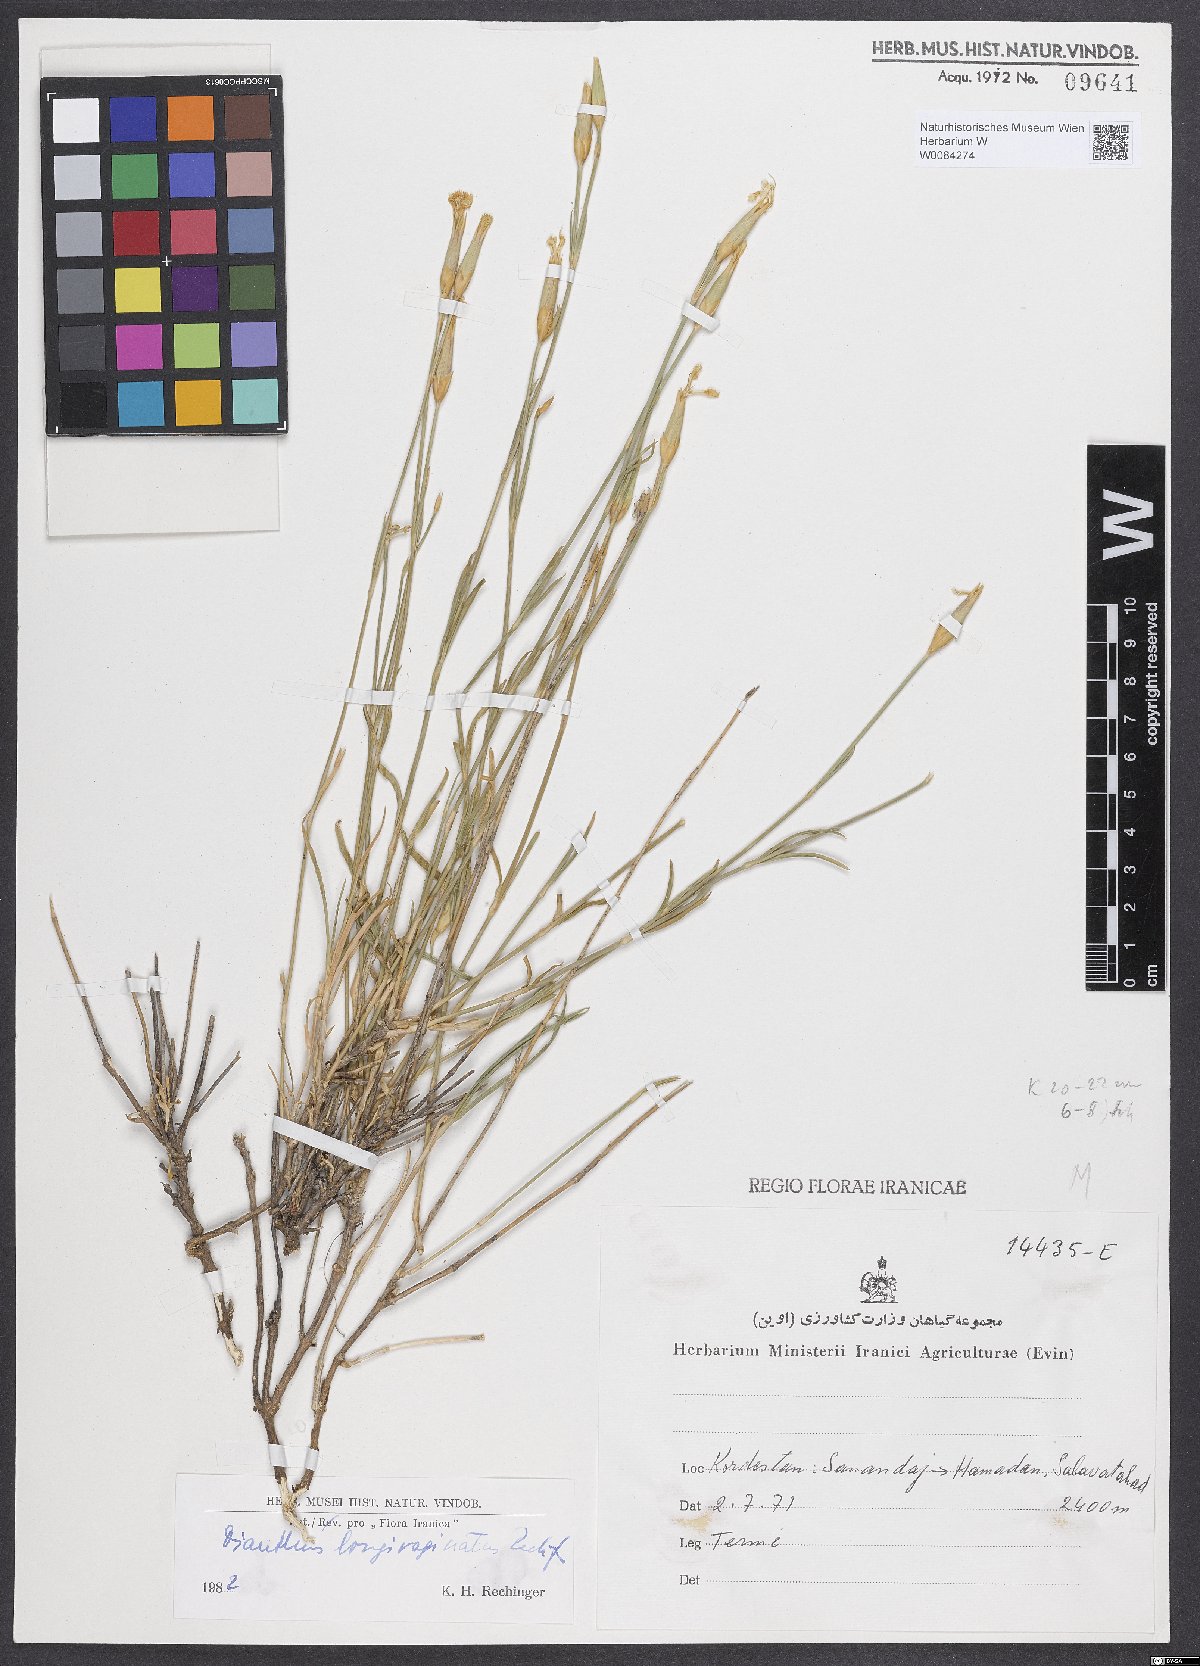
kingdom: Plantae
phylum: Tracheophyta
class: Magnoliopsida
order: Caryophyllales
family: Caryophyllaceae
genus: Dianthus
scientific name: Dianthus longivaginatus
